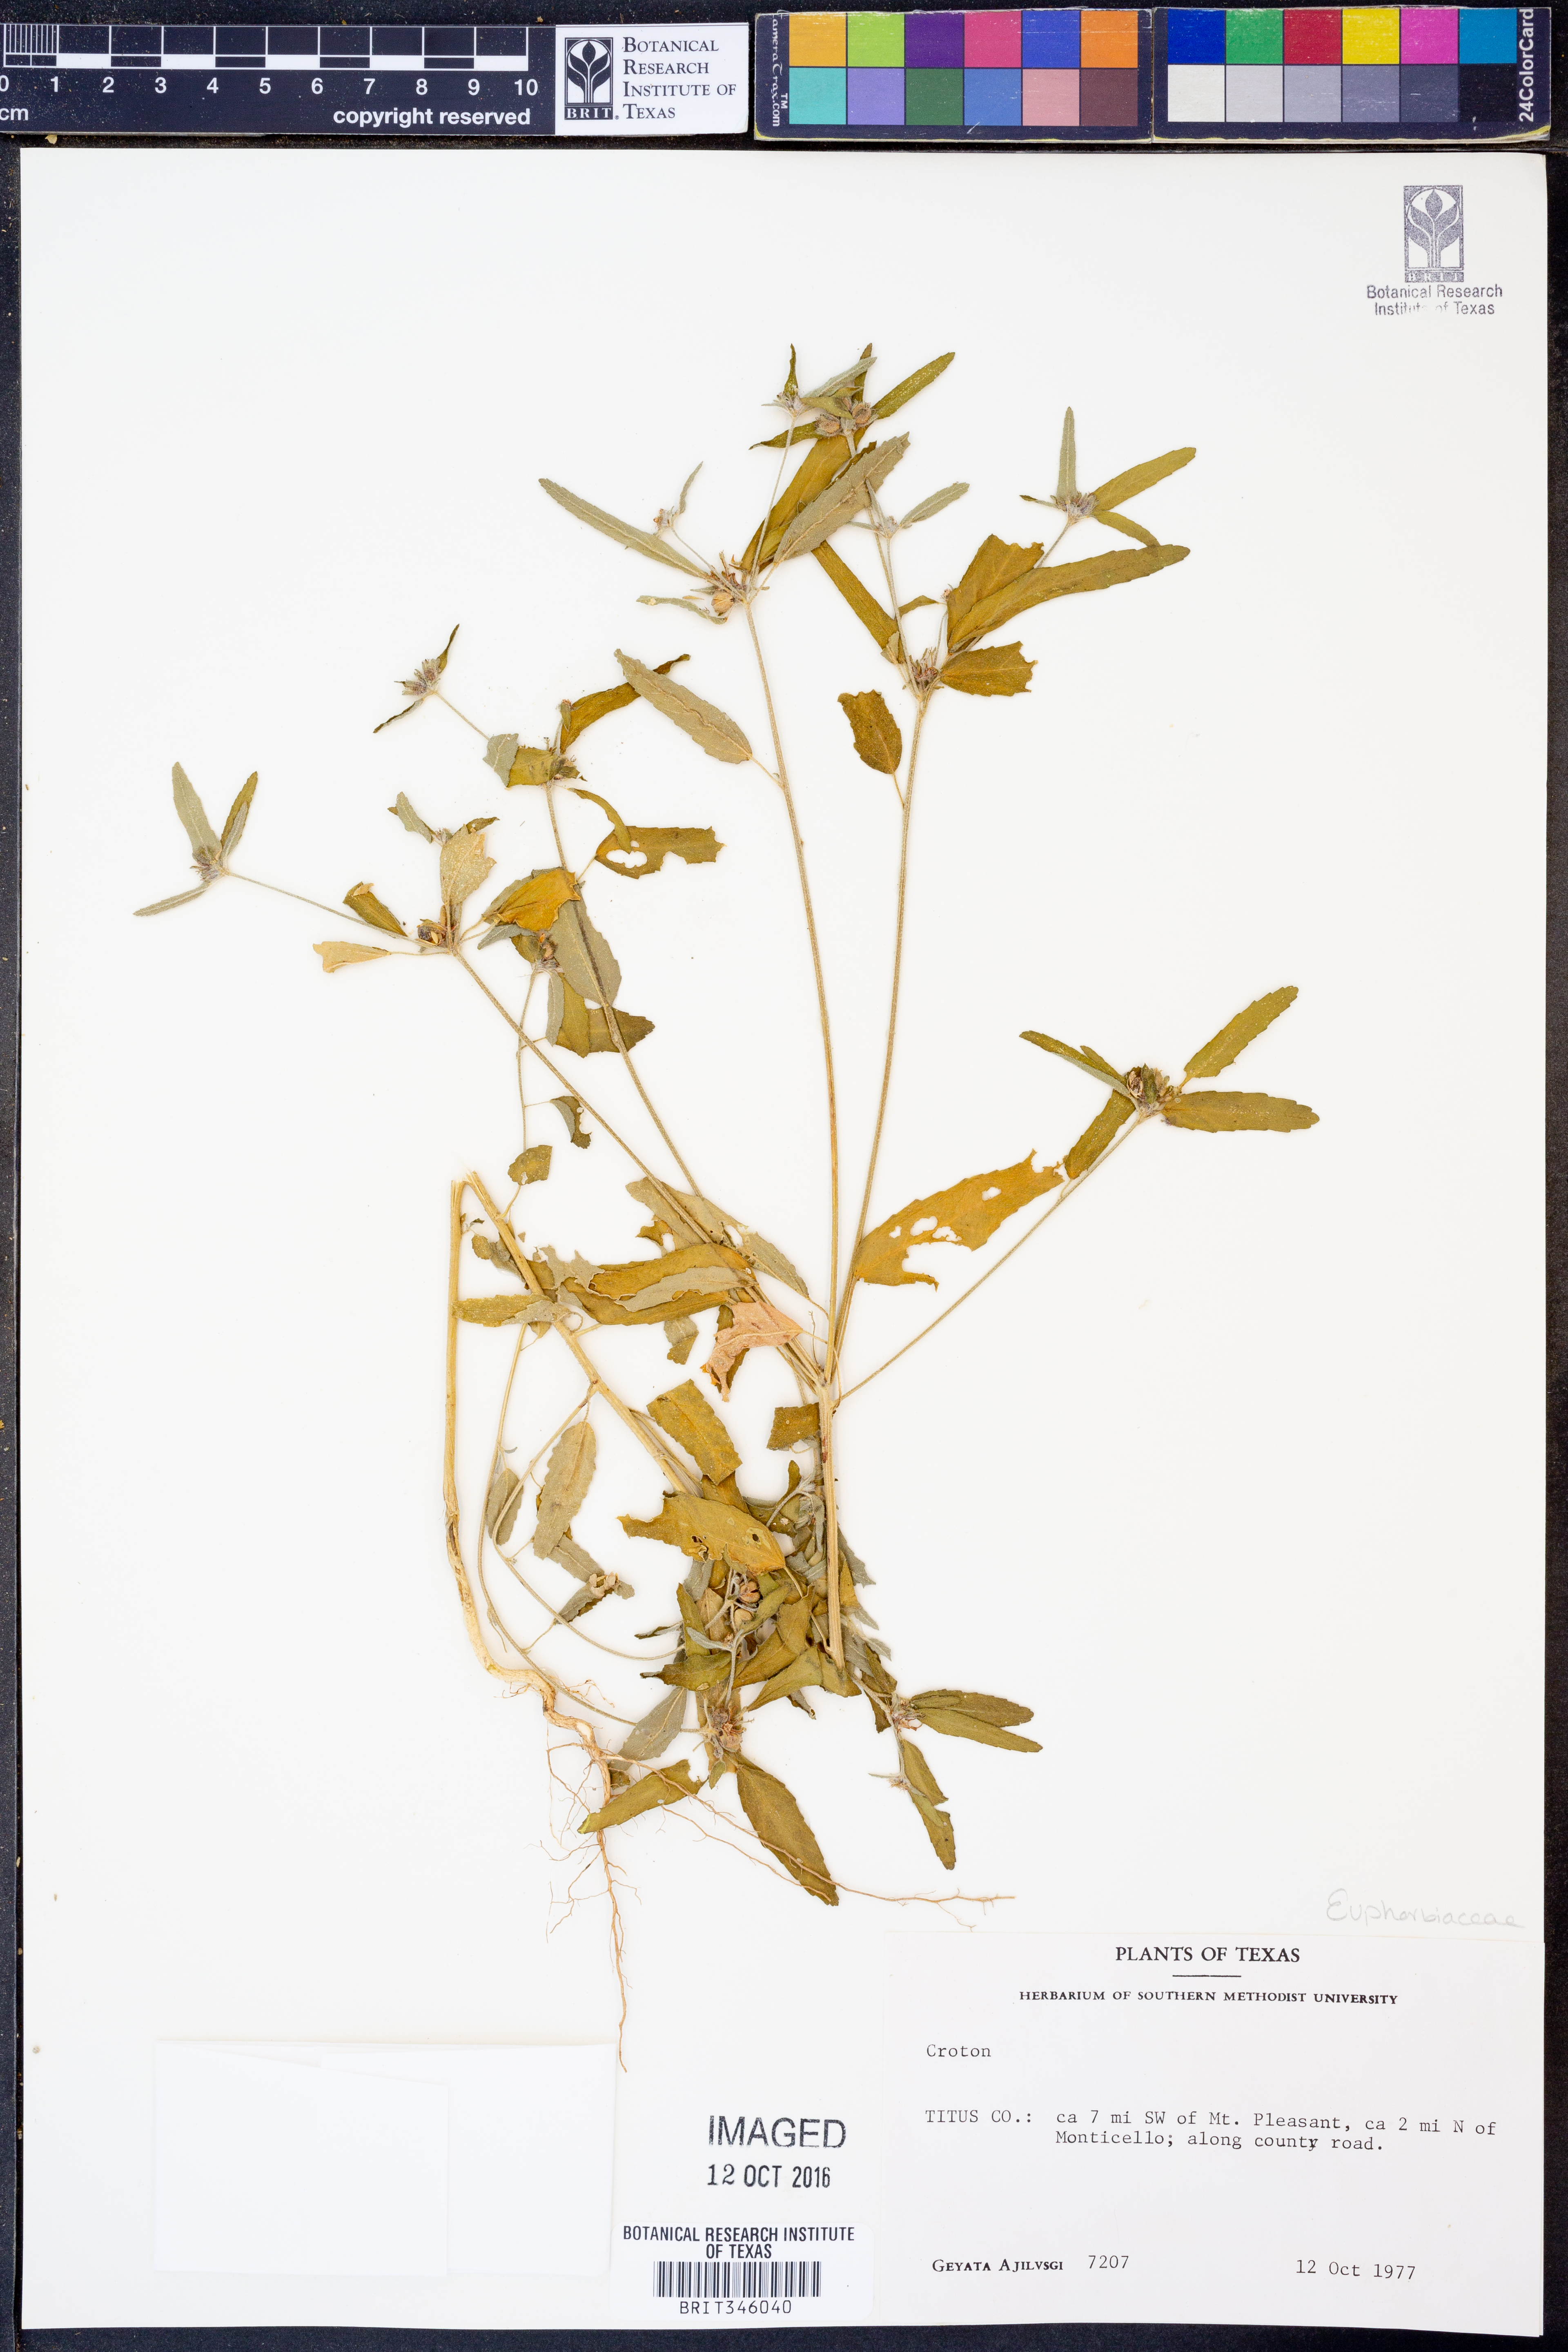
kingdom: Plantae
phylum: Tracheophyta
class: Magnoliopsida
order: Malpighiales
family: Euphorbiaceae
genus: Croton
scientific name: Croton
